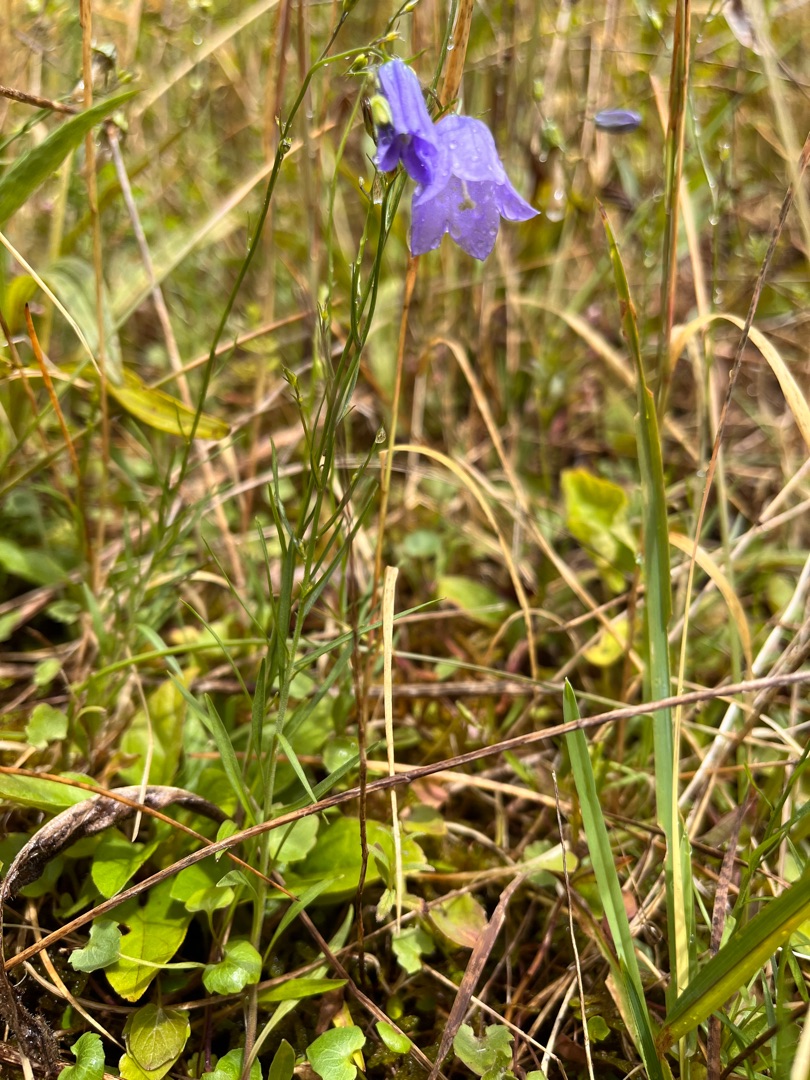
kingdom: Plantae
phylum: Tracheophyta
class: Magnoliopsida
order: Asterales
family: Campanulaceae
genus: Campanula
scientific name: Campanula rotundifolia
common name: Liden klokke
